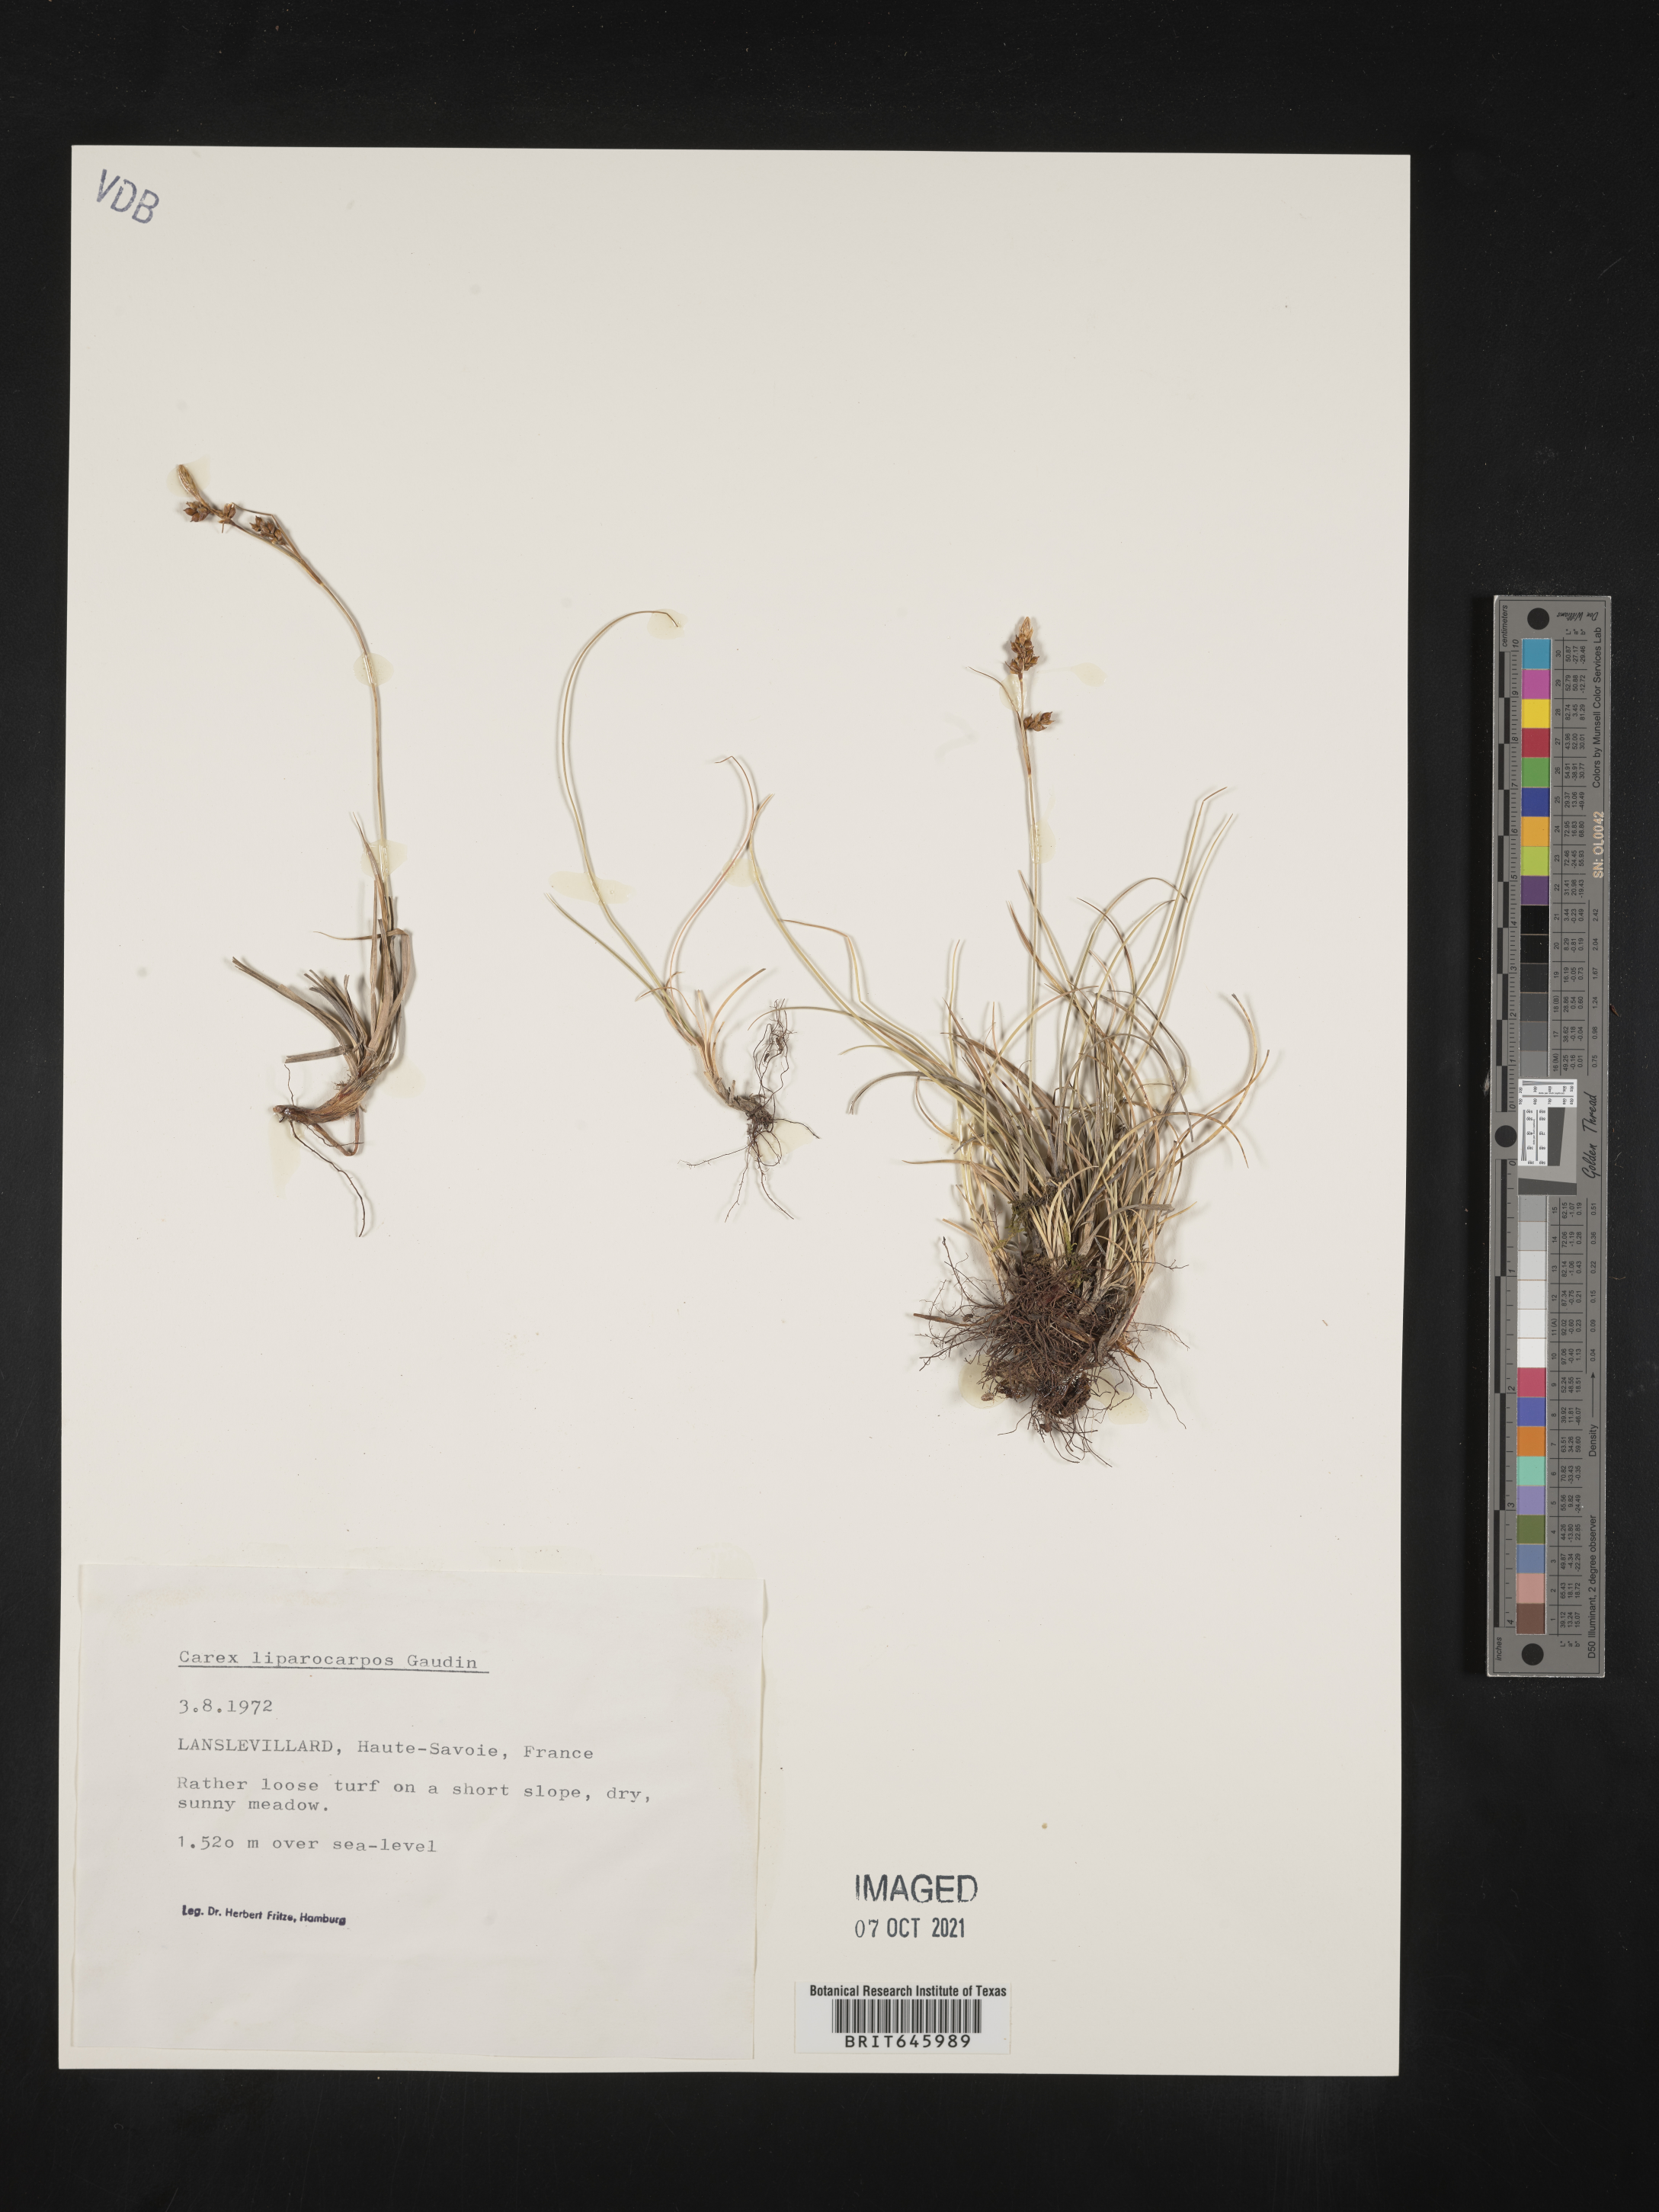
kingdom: Plantae
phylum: Tracheophyta
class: Liliopsida
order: Poales
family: Cyperaceae
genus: Carex
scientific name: Carex liparocarpos
